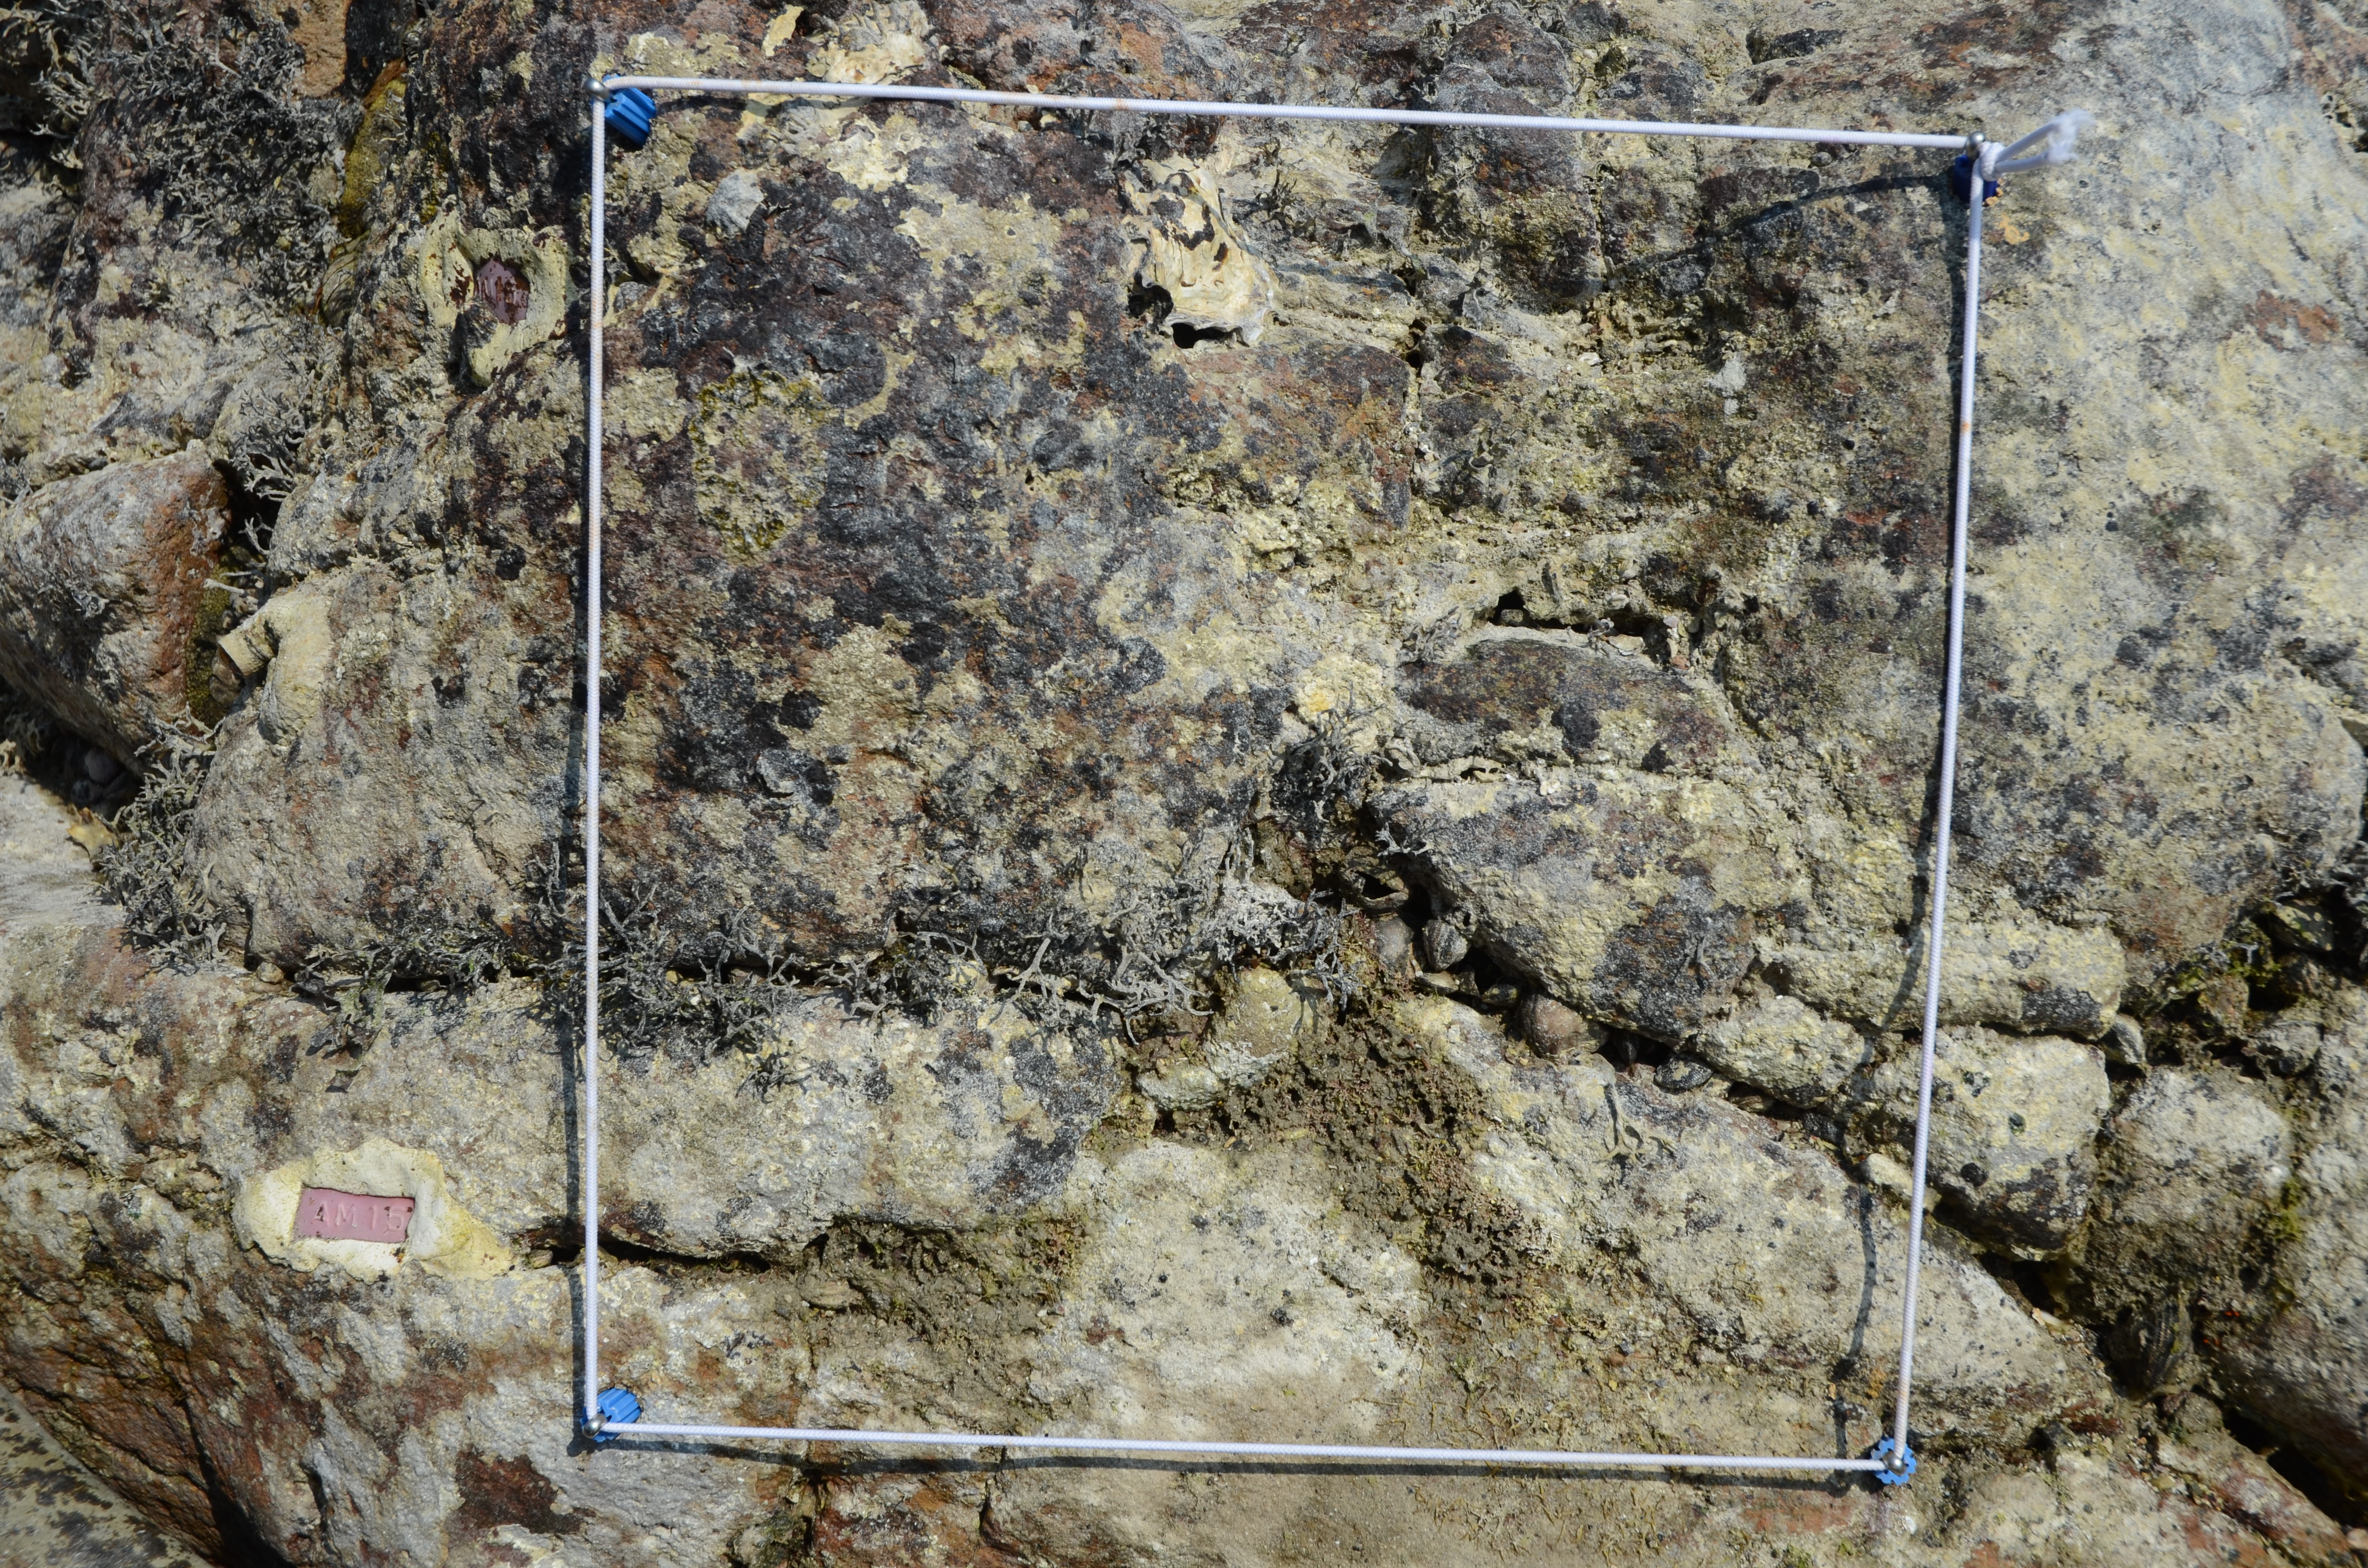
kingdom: Chromista
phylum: Ochrophyta
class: Phaeophyceae
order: Ishigeales
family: Ishigeaceae
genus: Ishige
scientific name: Ishige okamurae
